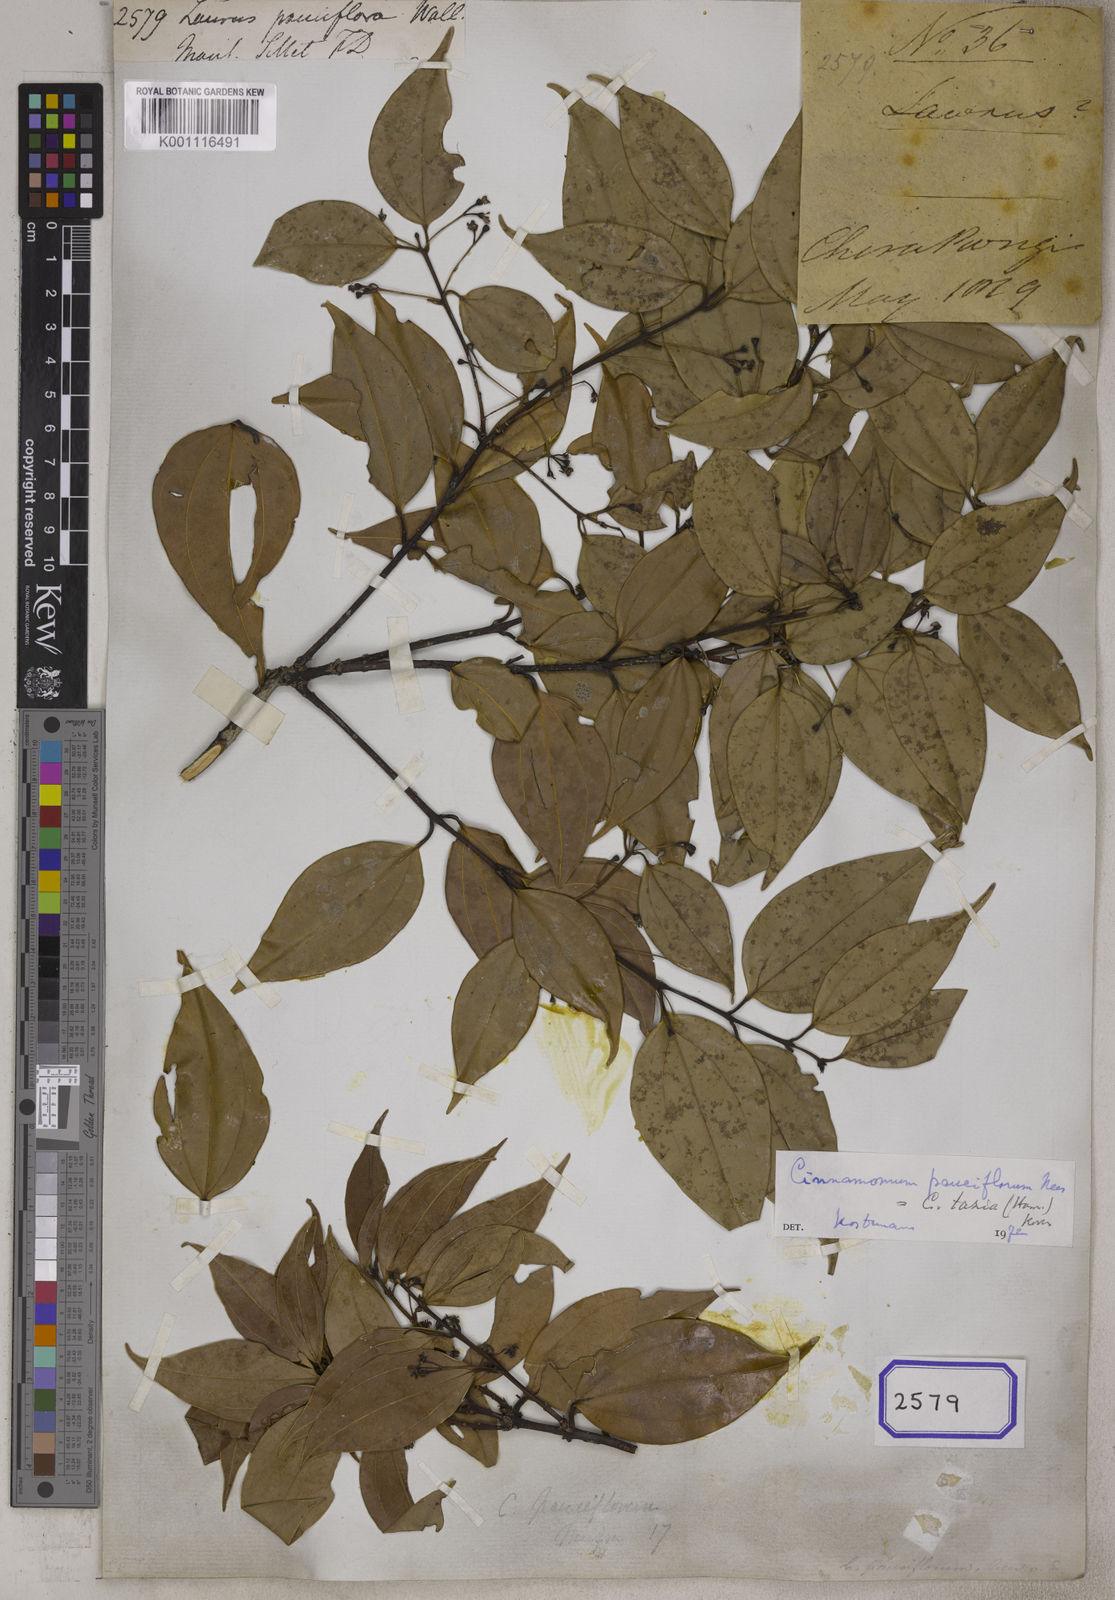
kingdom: Plantae
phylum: Tracheophyta
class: Magnoliopsida
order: Laurales
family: Lauraceae
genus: Cinnamomum
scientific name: Cinnamomum tazia
